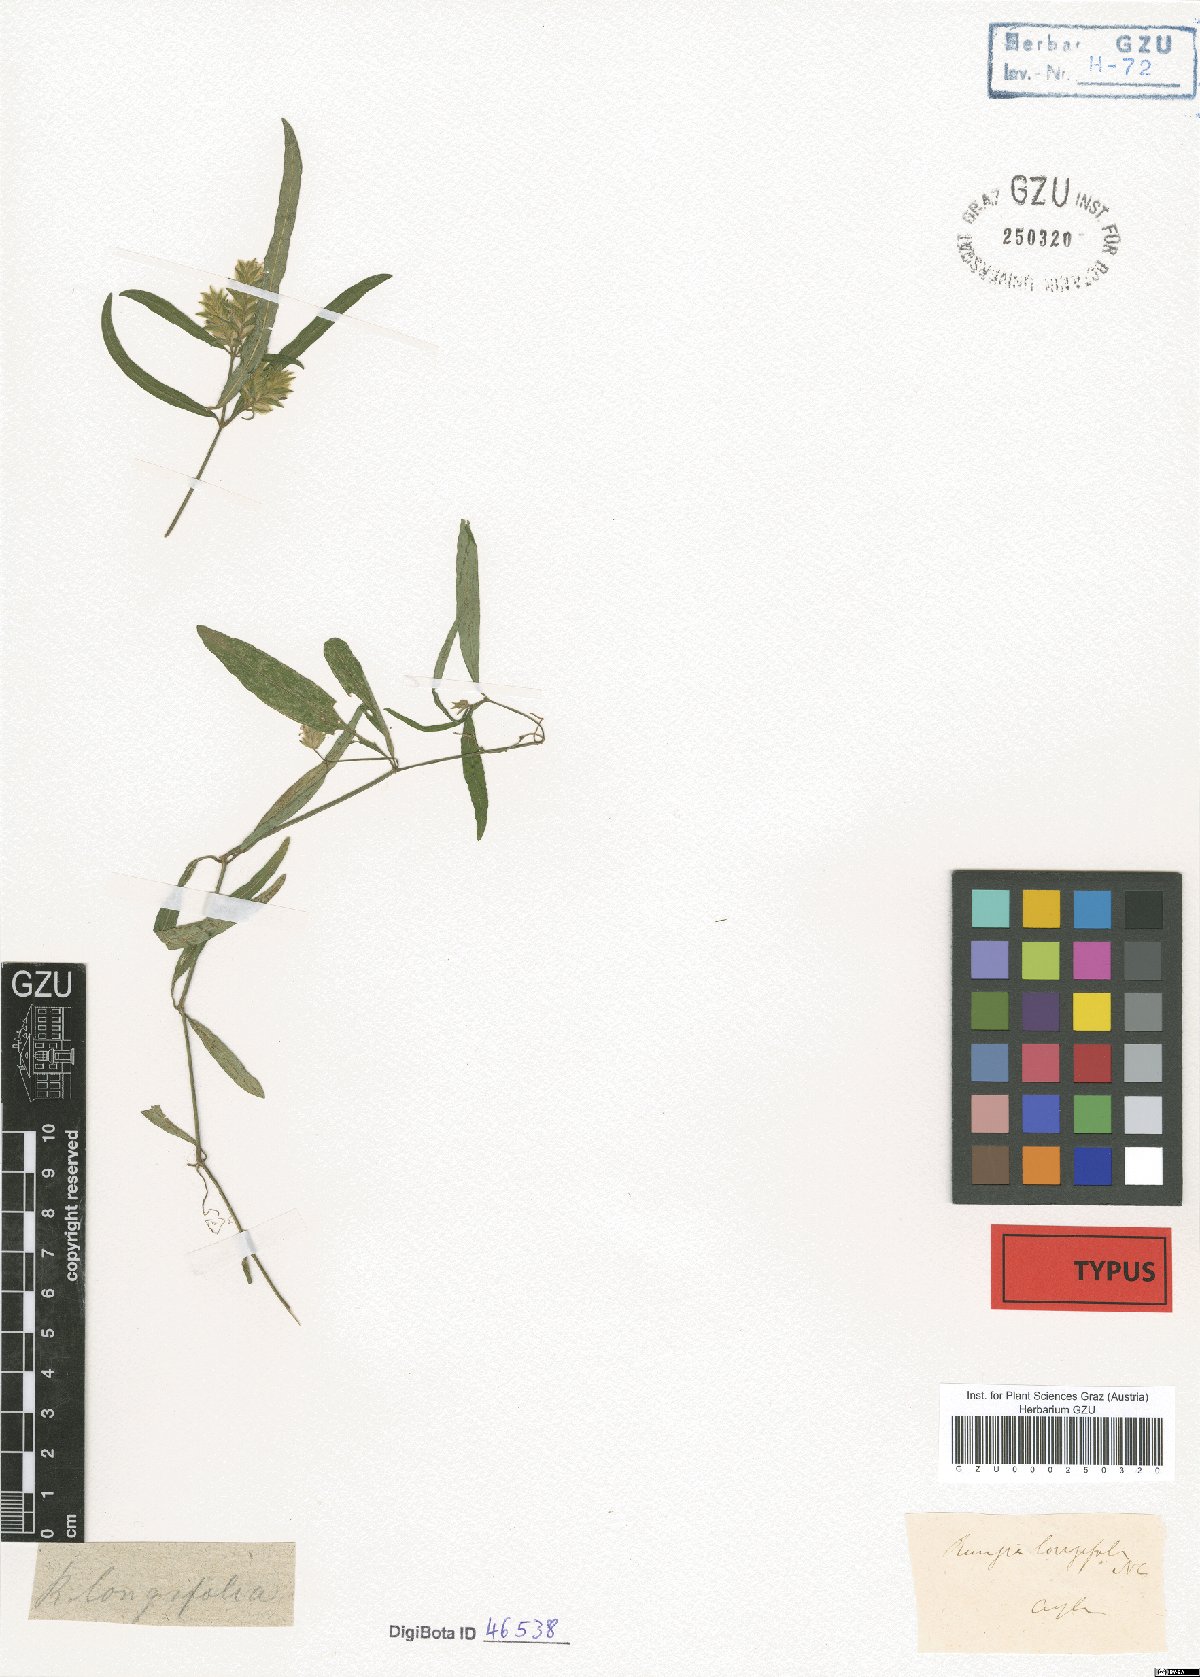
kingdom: Plantae
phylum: Tracheophyta
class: Magnoliopsida
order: Lamiales
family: Acanthaceae
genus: Rungia
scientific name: Rungia longifolia
